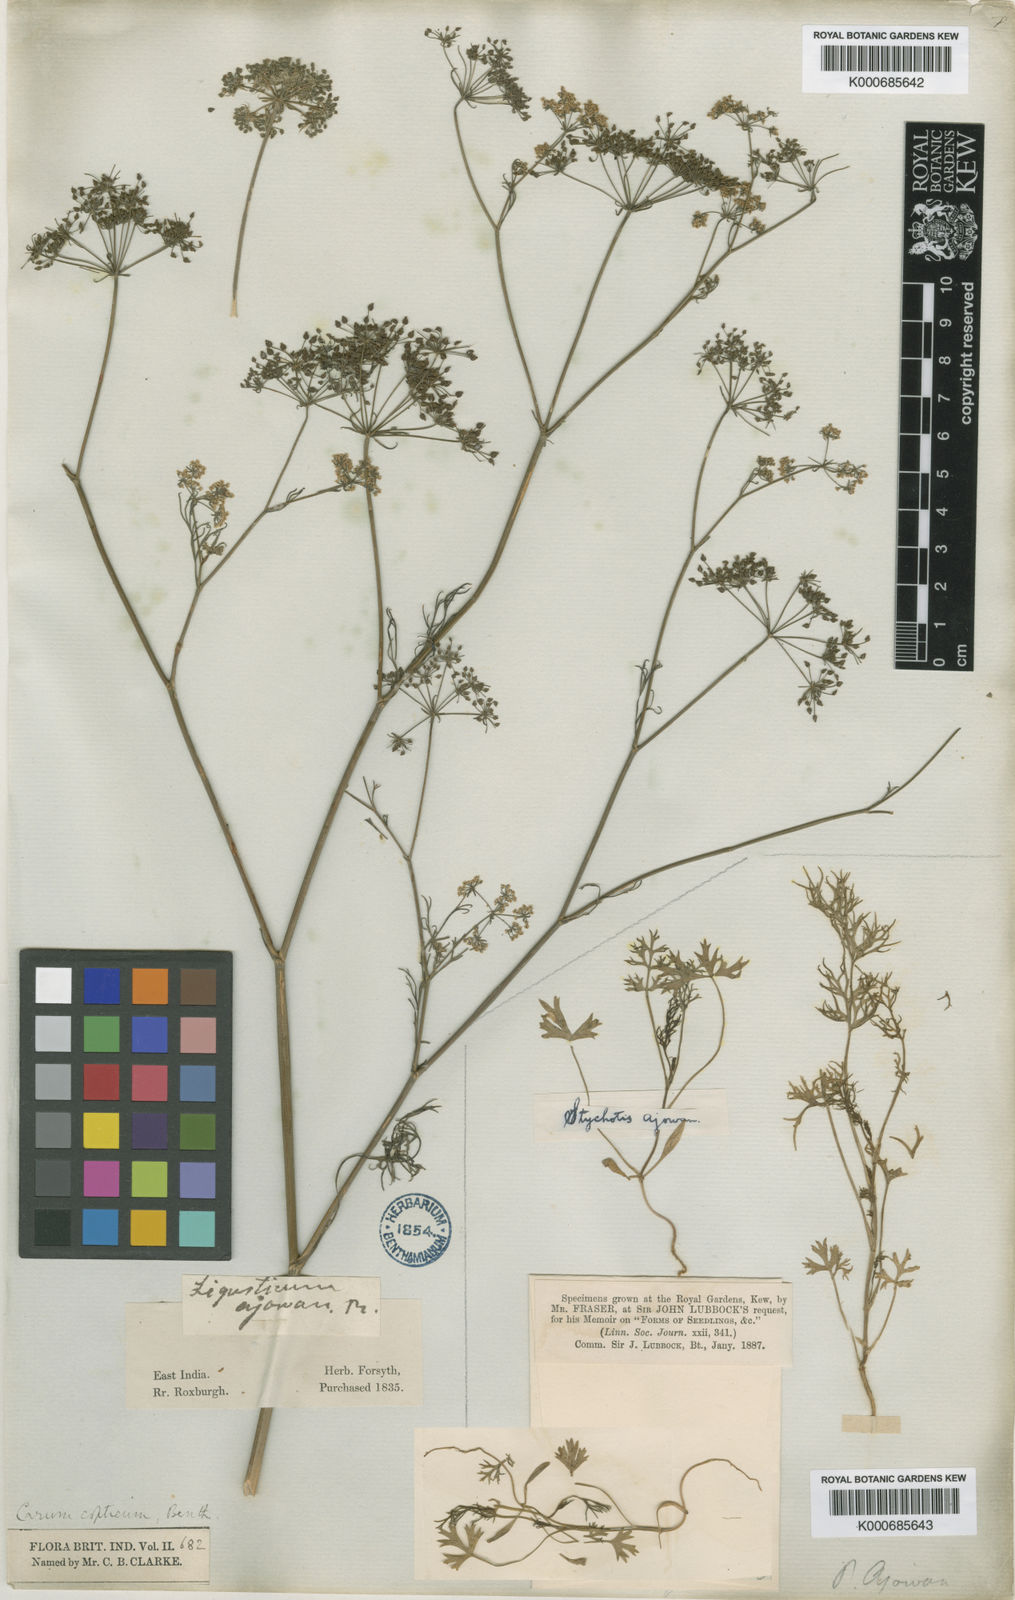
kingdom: Plantae
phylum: Tracheophyta
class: Magnoliopsida
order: Apiales
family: Apiaceae
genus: Trachyspermum
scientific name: Trachyspermum ammi
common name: Ajowan
